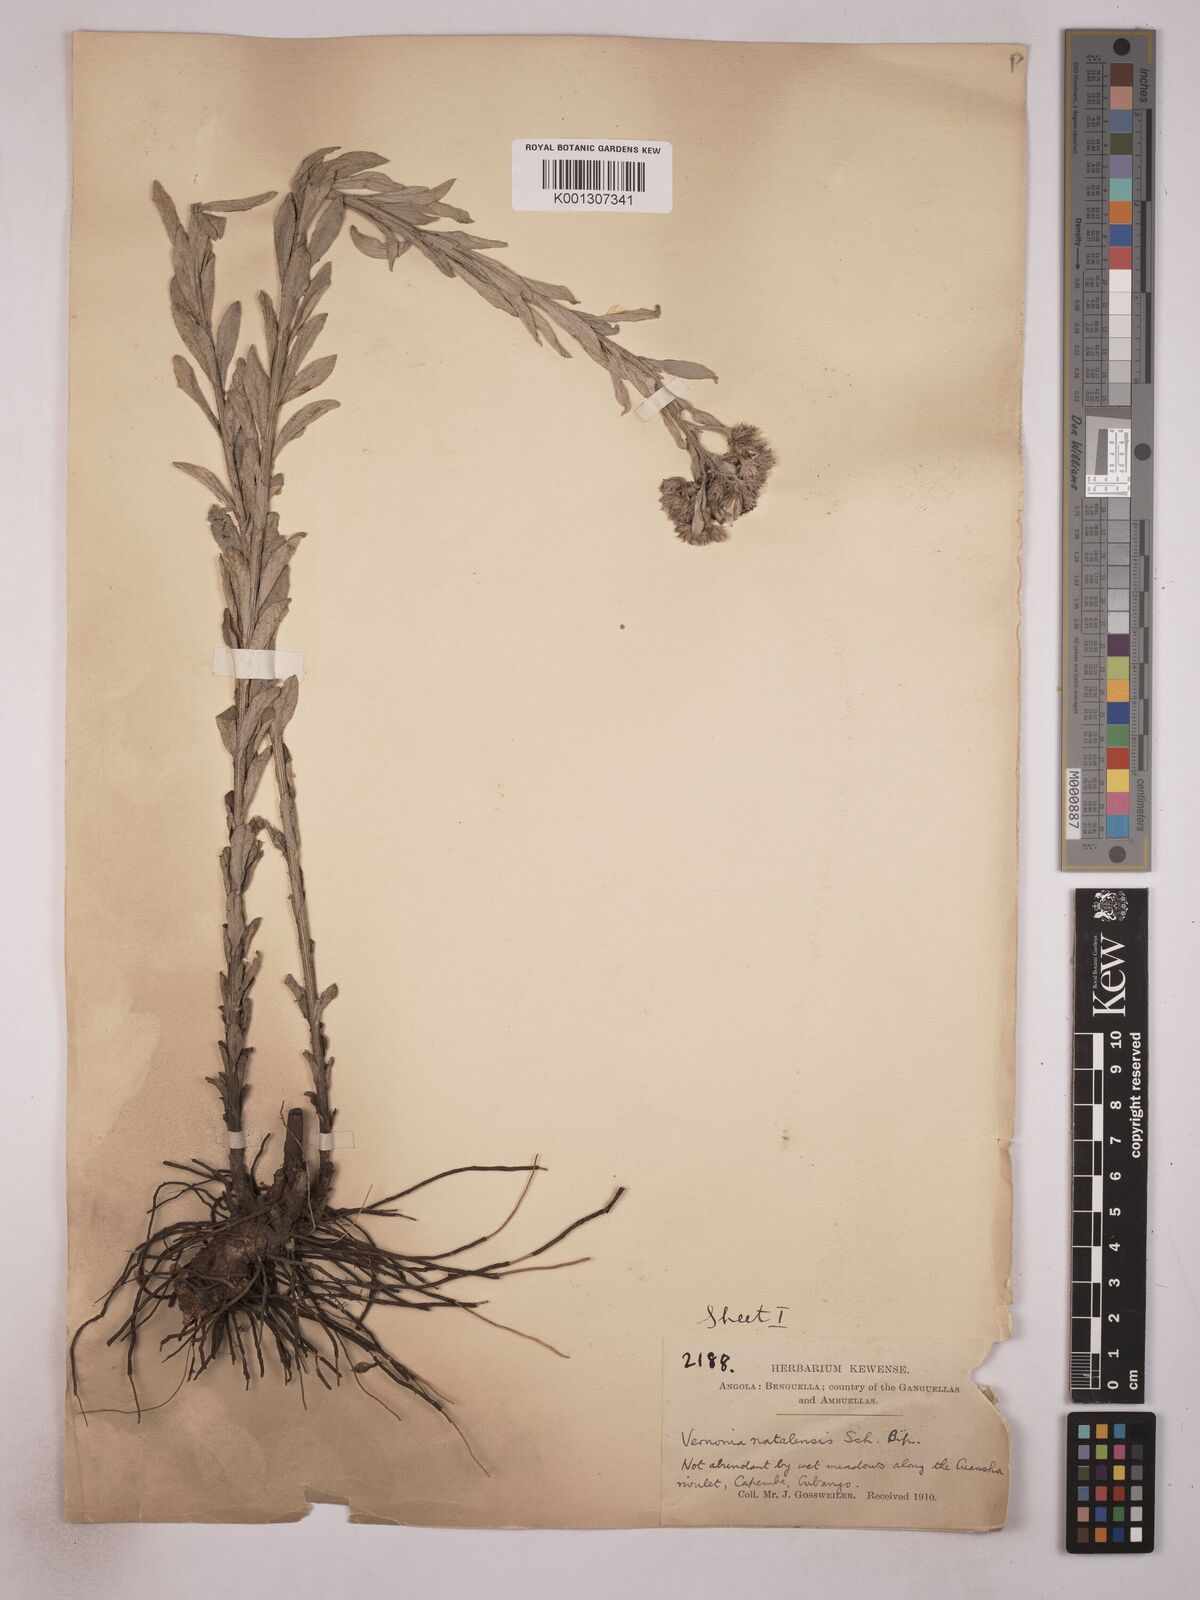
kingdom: Plantae
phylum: Tracheophyta
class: Magnoliopsida
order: Asterales
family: Asteraceae
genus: Hilliardiella
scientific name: Hilliardiella aristata
